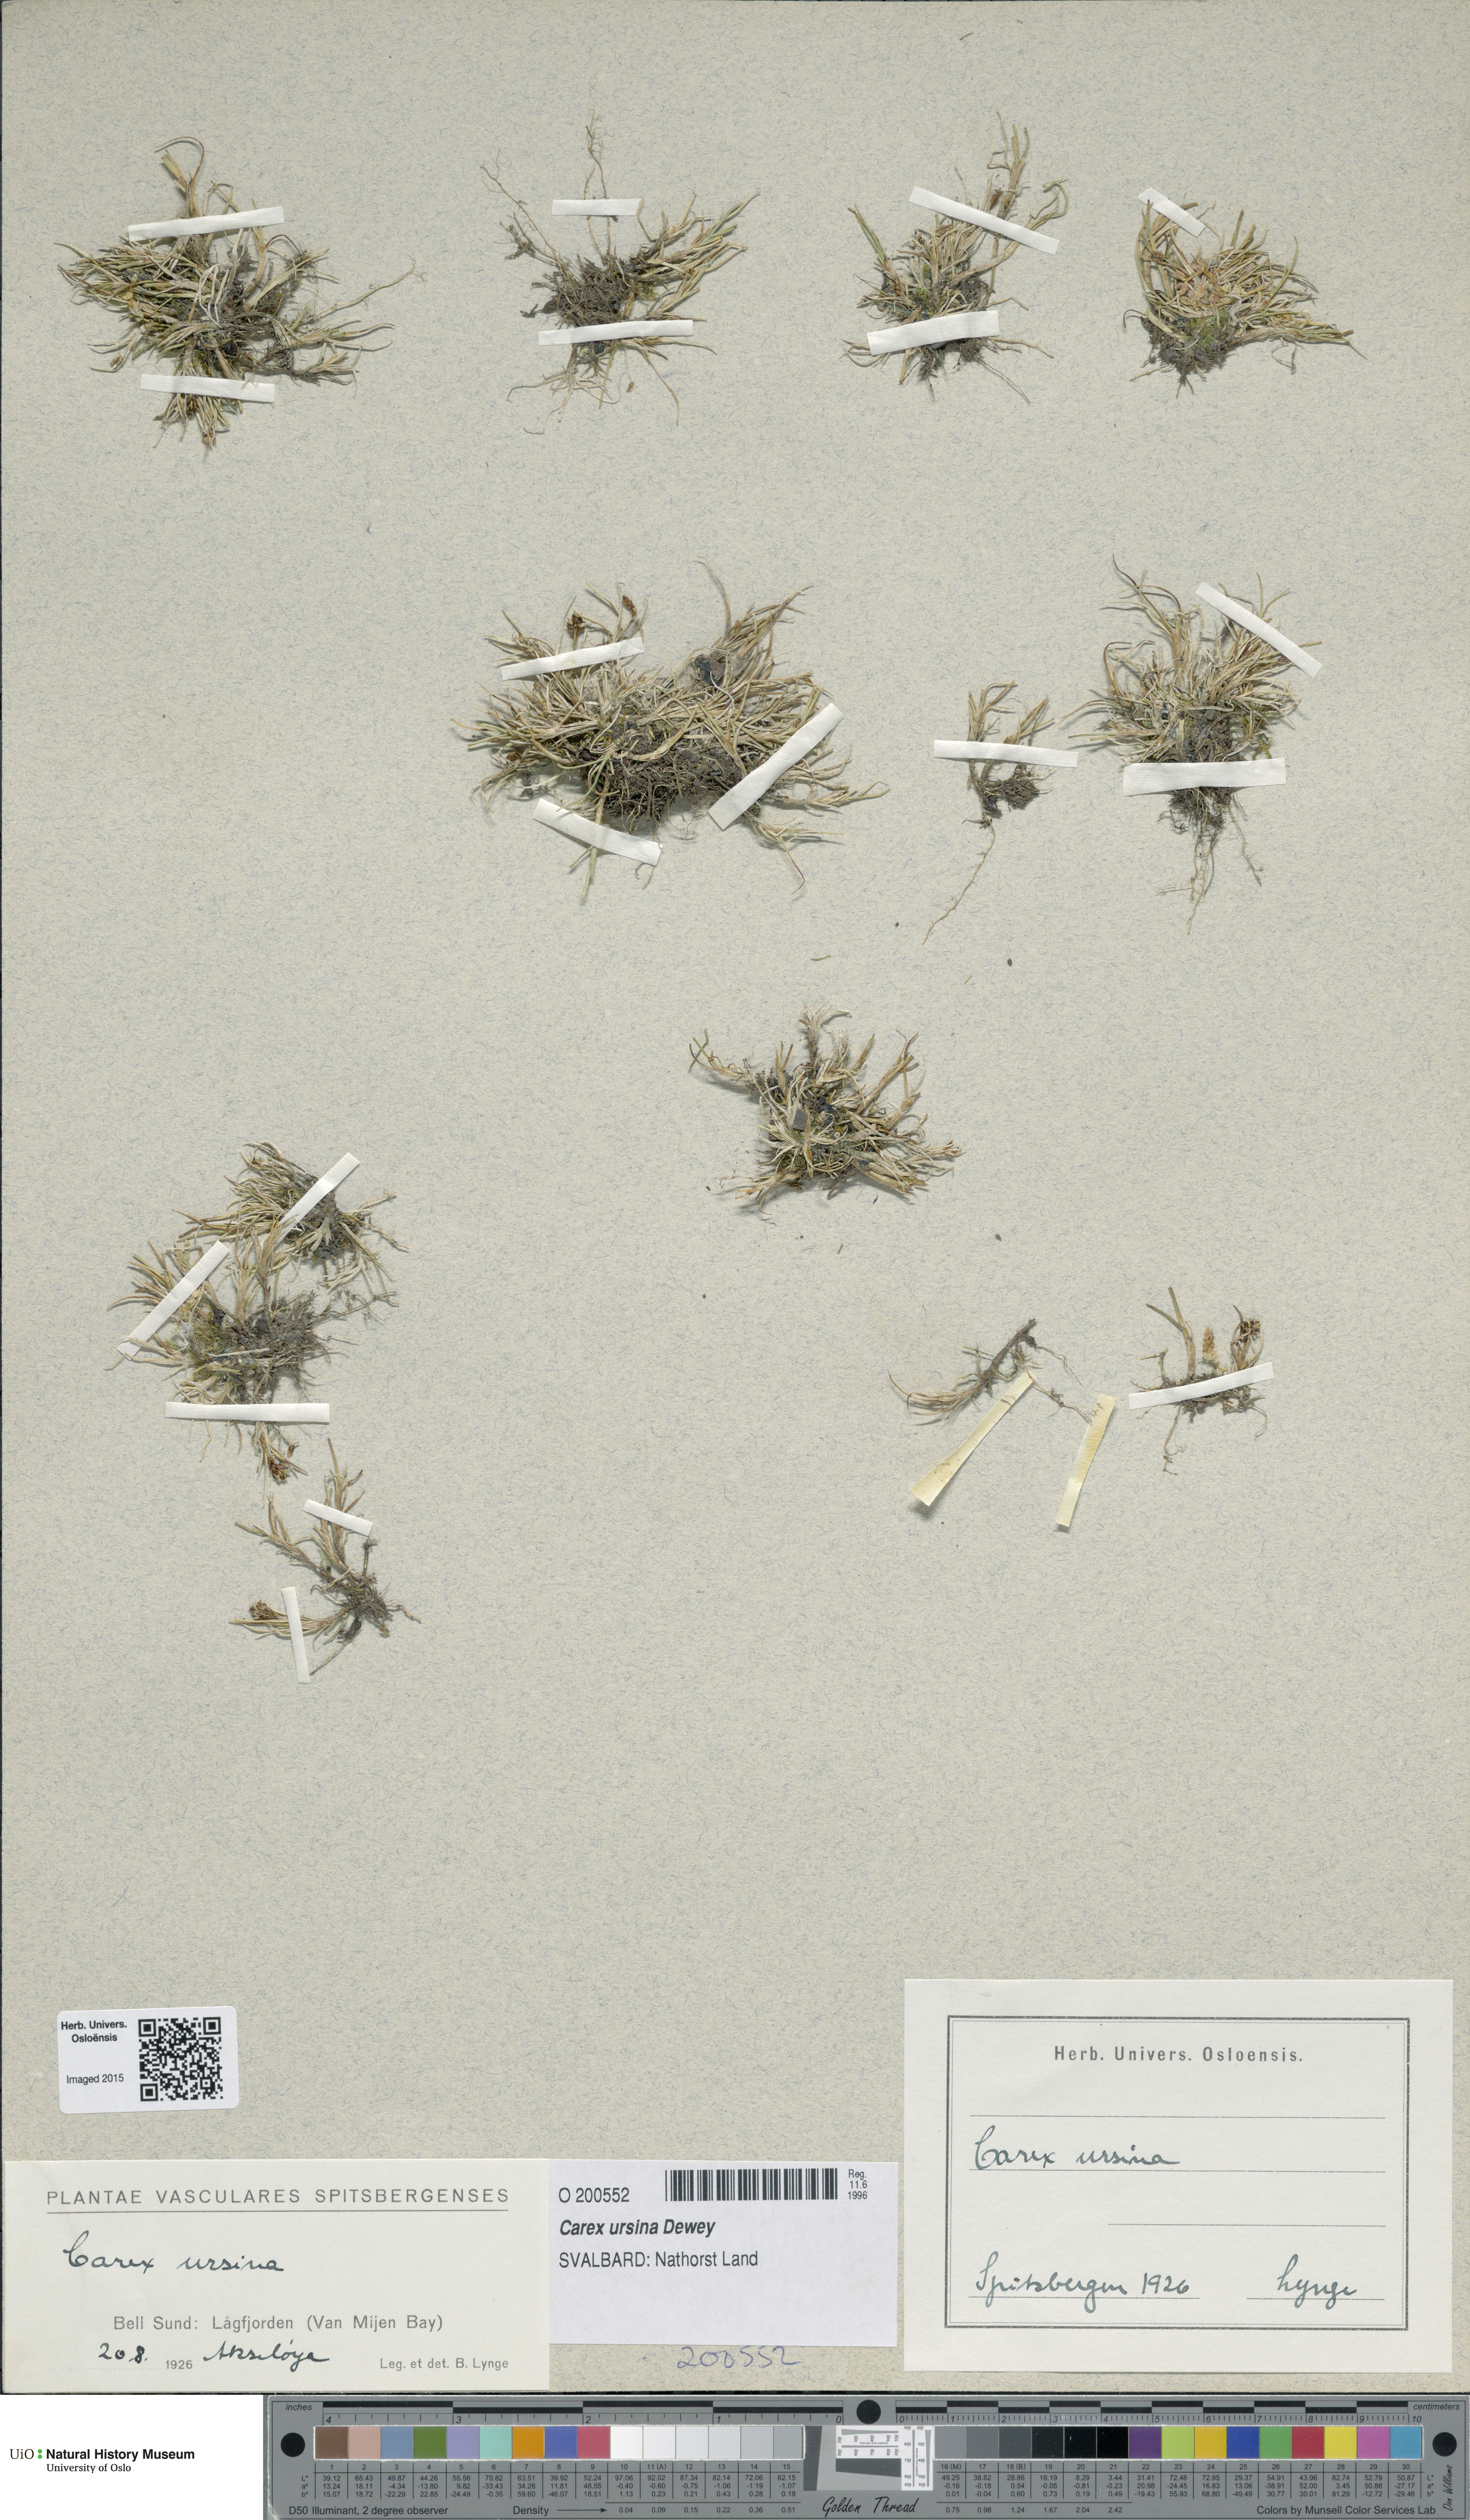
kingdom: Plantae
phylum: Tracheophyta
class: Liliopsida
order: Poales
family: Cyperaceae
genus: Carex
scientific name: Carex ursina
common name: Bear sedge
